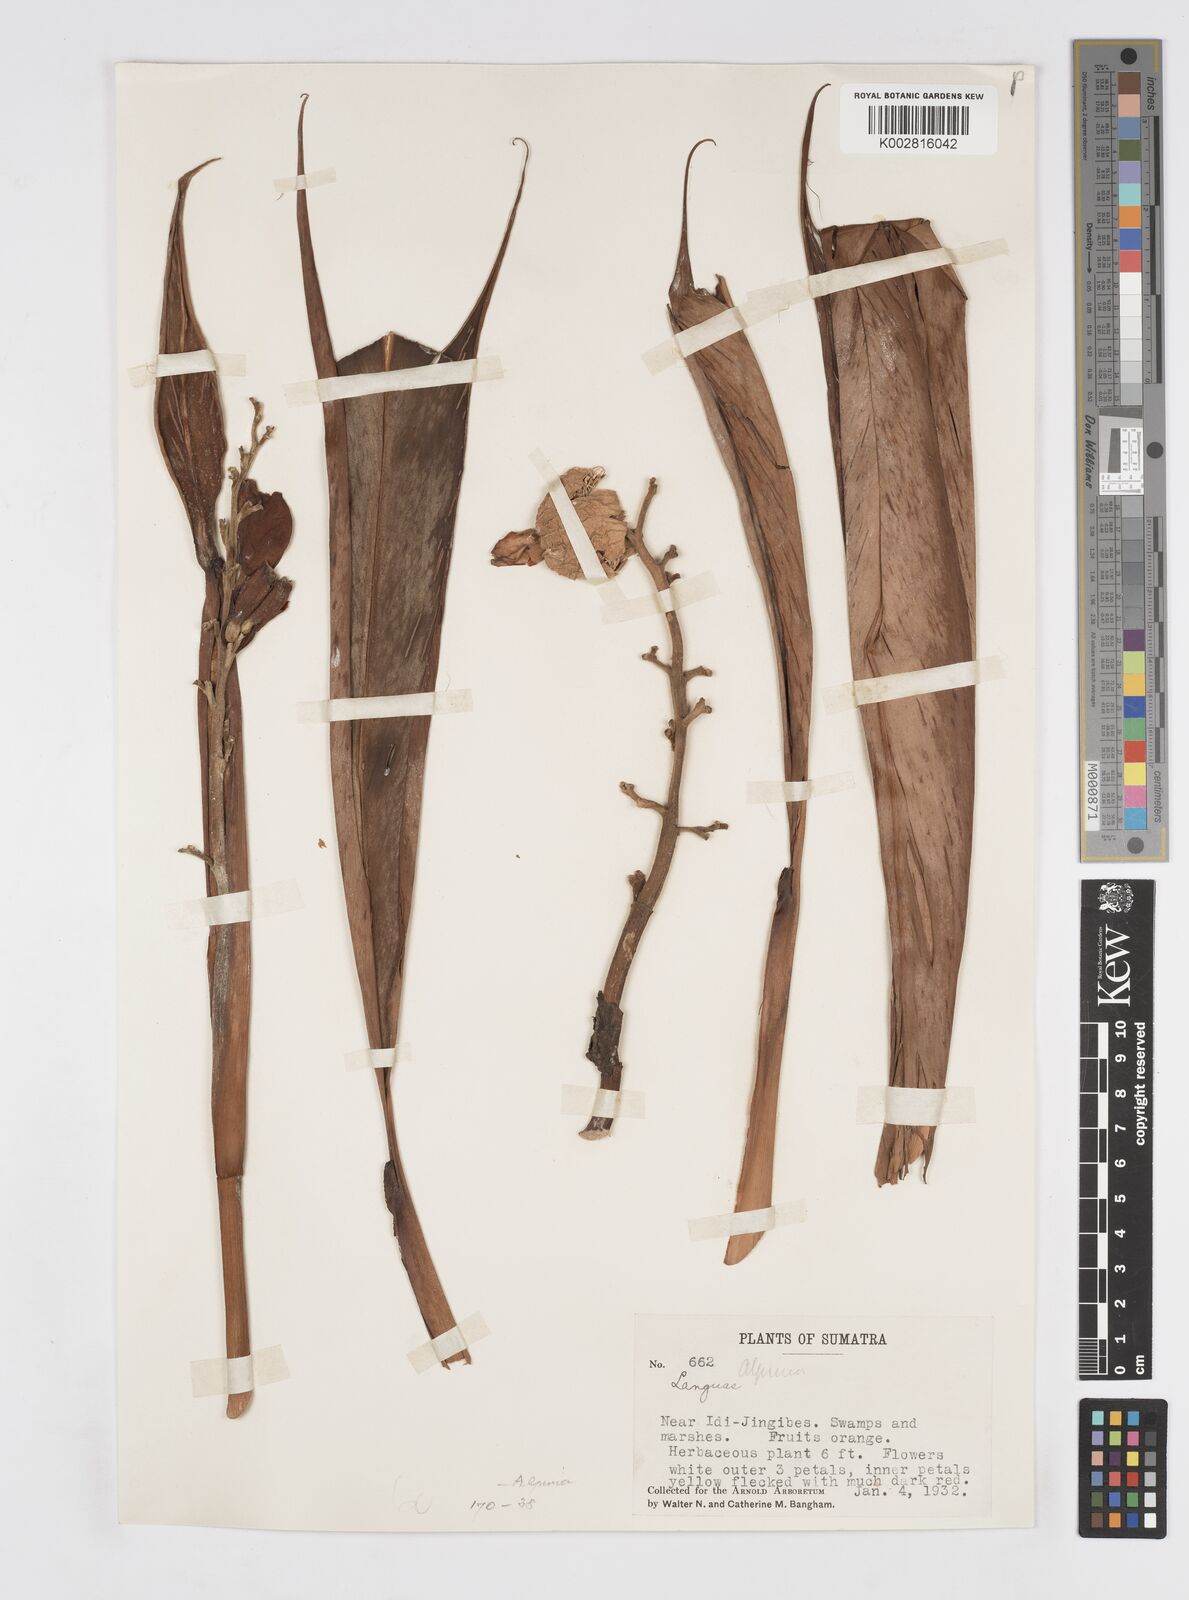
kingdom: Plantae
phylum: Tracheophyta
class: Liliopsida
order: Zingiberales
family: Zingiberaceae
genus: Alpinia
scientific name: Alpinia
